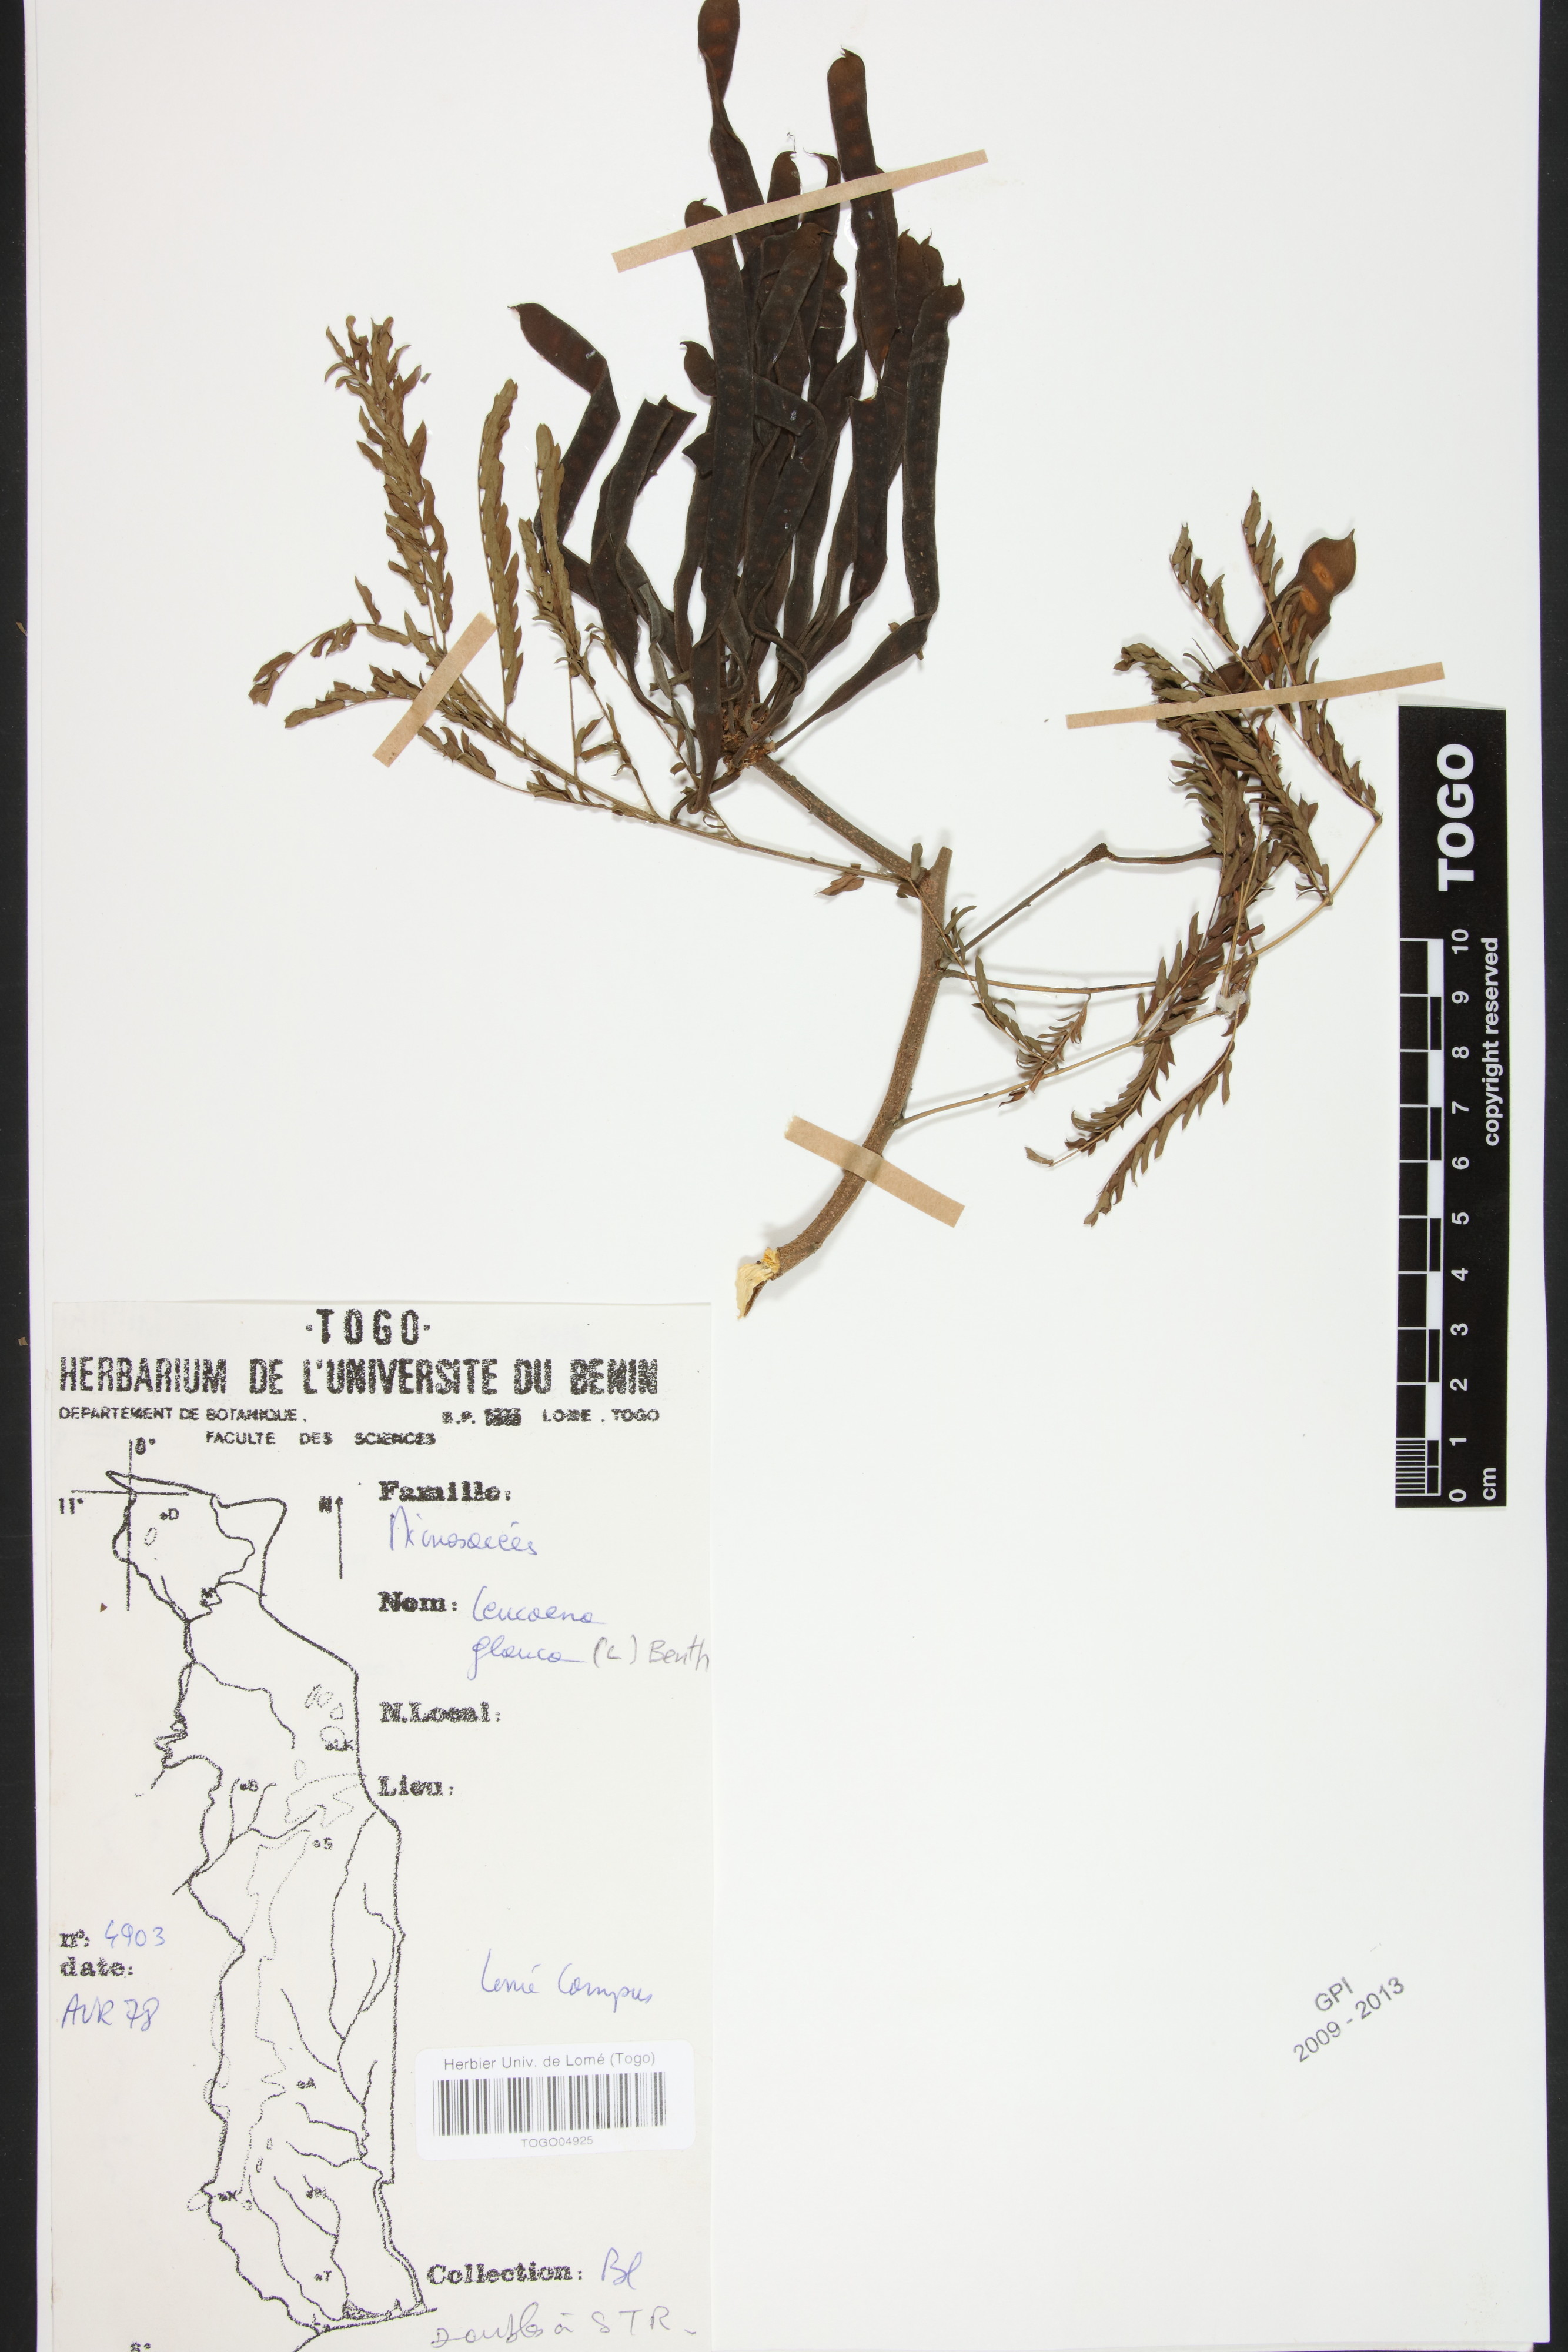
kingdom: Plantae
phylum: Tracheophyta
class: Magnoliopsida
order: Fabales
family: Fabaceae
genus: Acaciella
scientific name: Acaciella glauca
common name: Redwood
